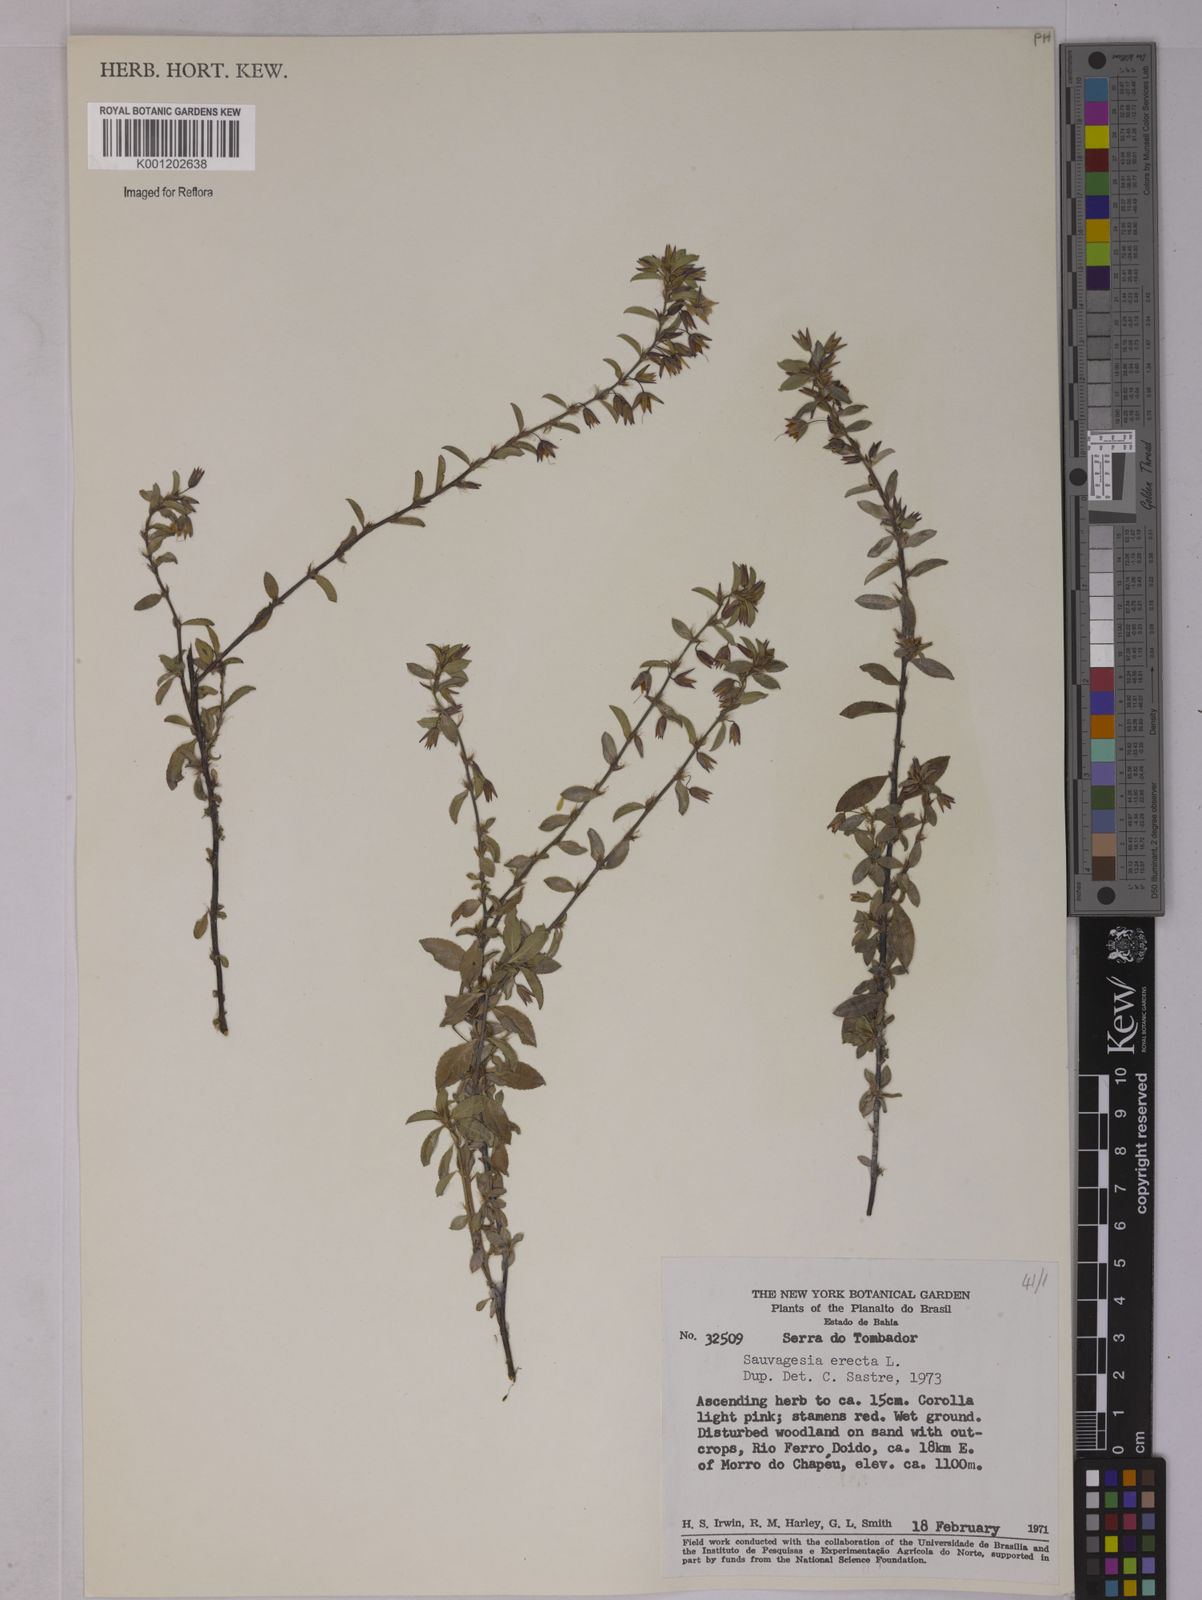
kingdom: Plantae
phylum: Tracheophyta
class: Magnoliopsida
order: Malpighiales
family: Ochnaceae
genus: Sauvagesia
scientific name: Sauvagesia erecta
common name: Creole tea
